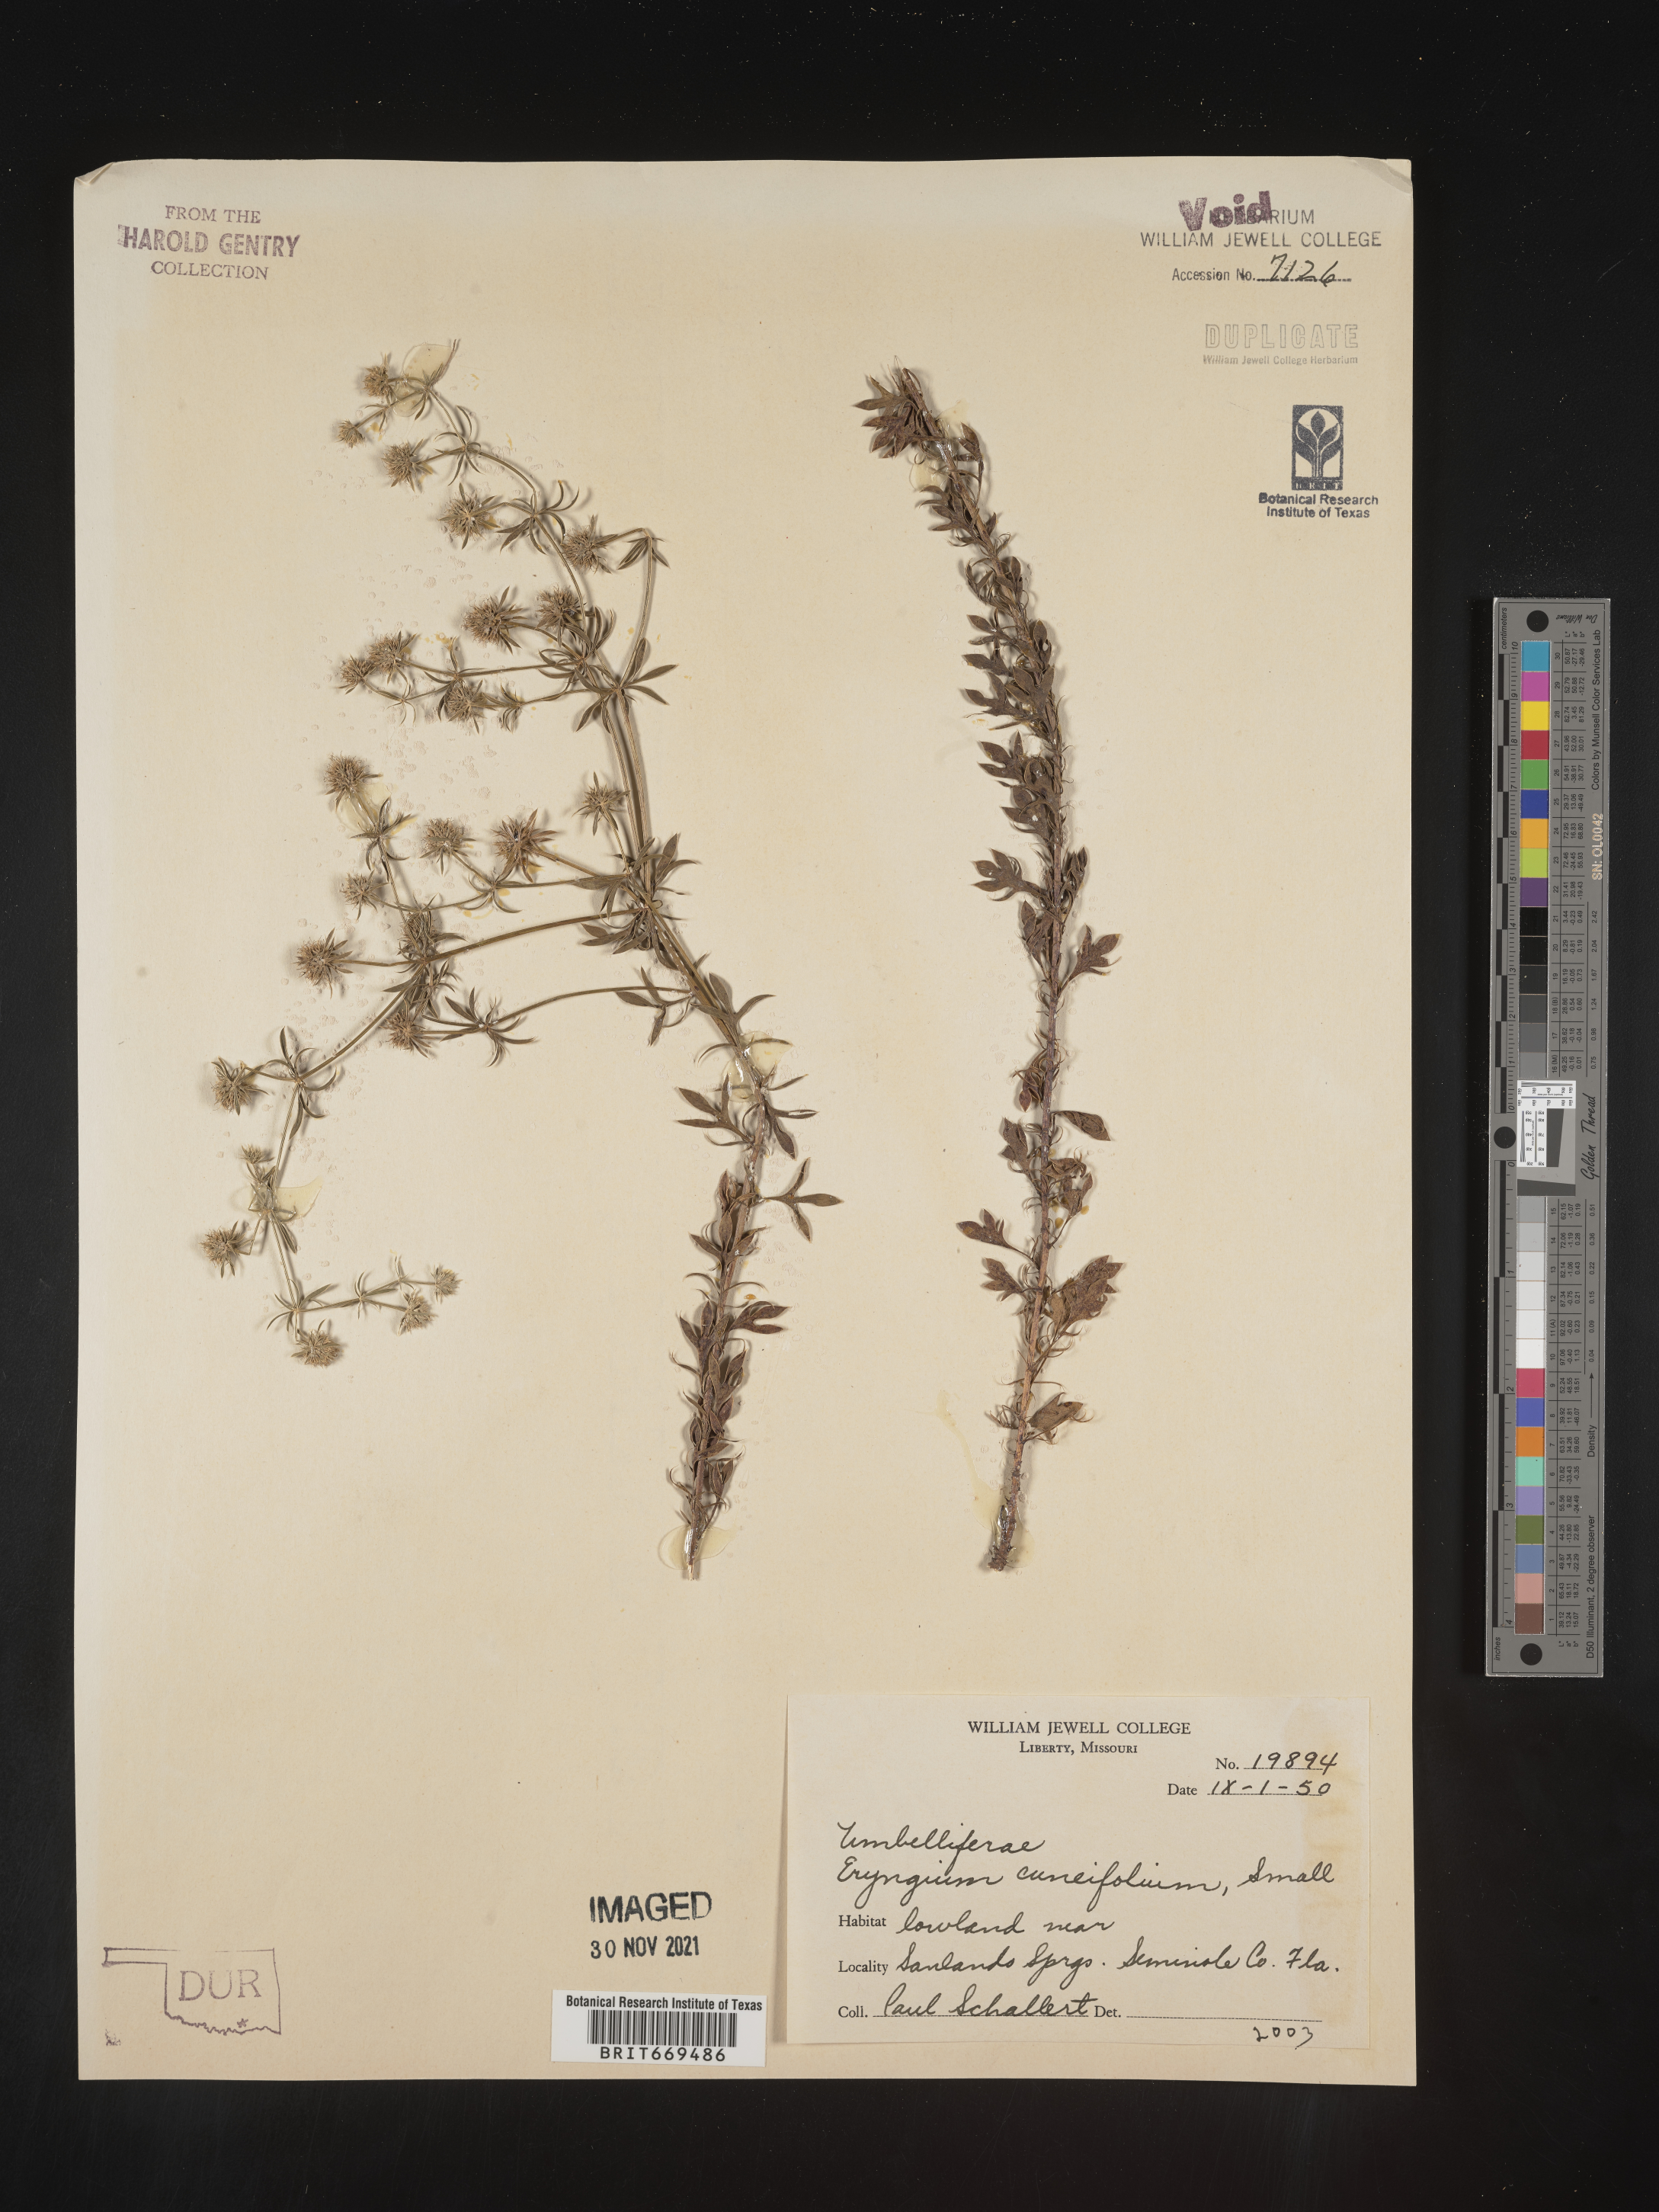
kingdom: Plantae
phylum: Tracheophyta
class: Magnoliopsida
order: Apiales
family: Apiaceae
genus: Eryngium
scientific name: Eryngium
